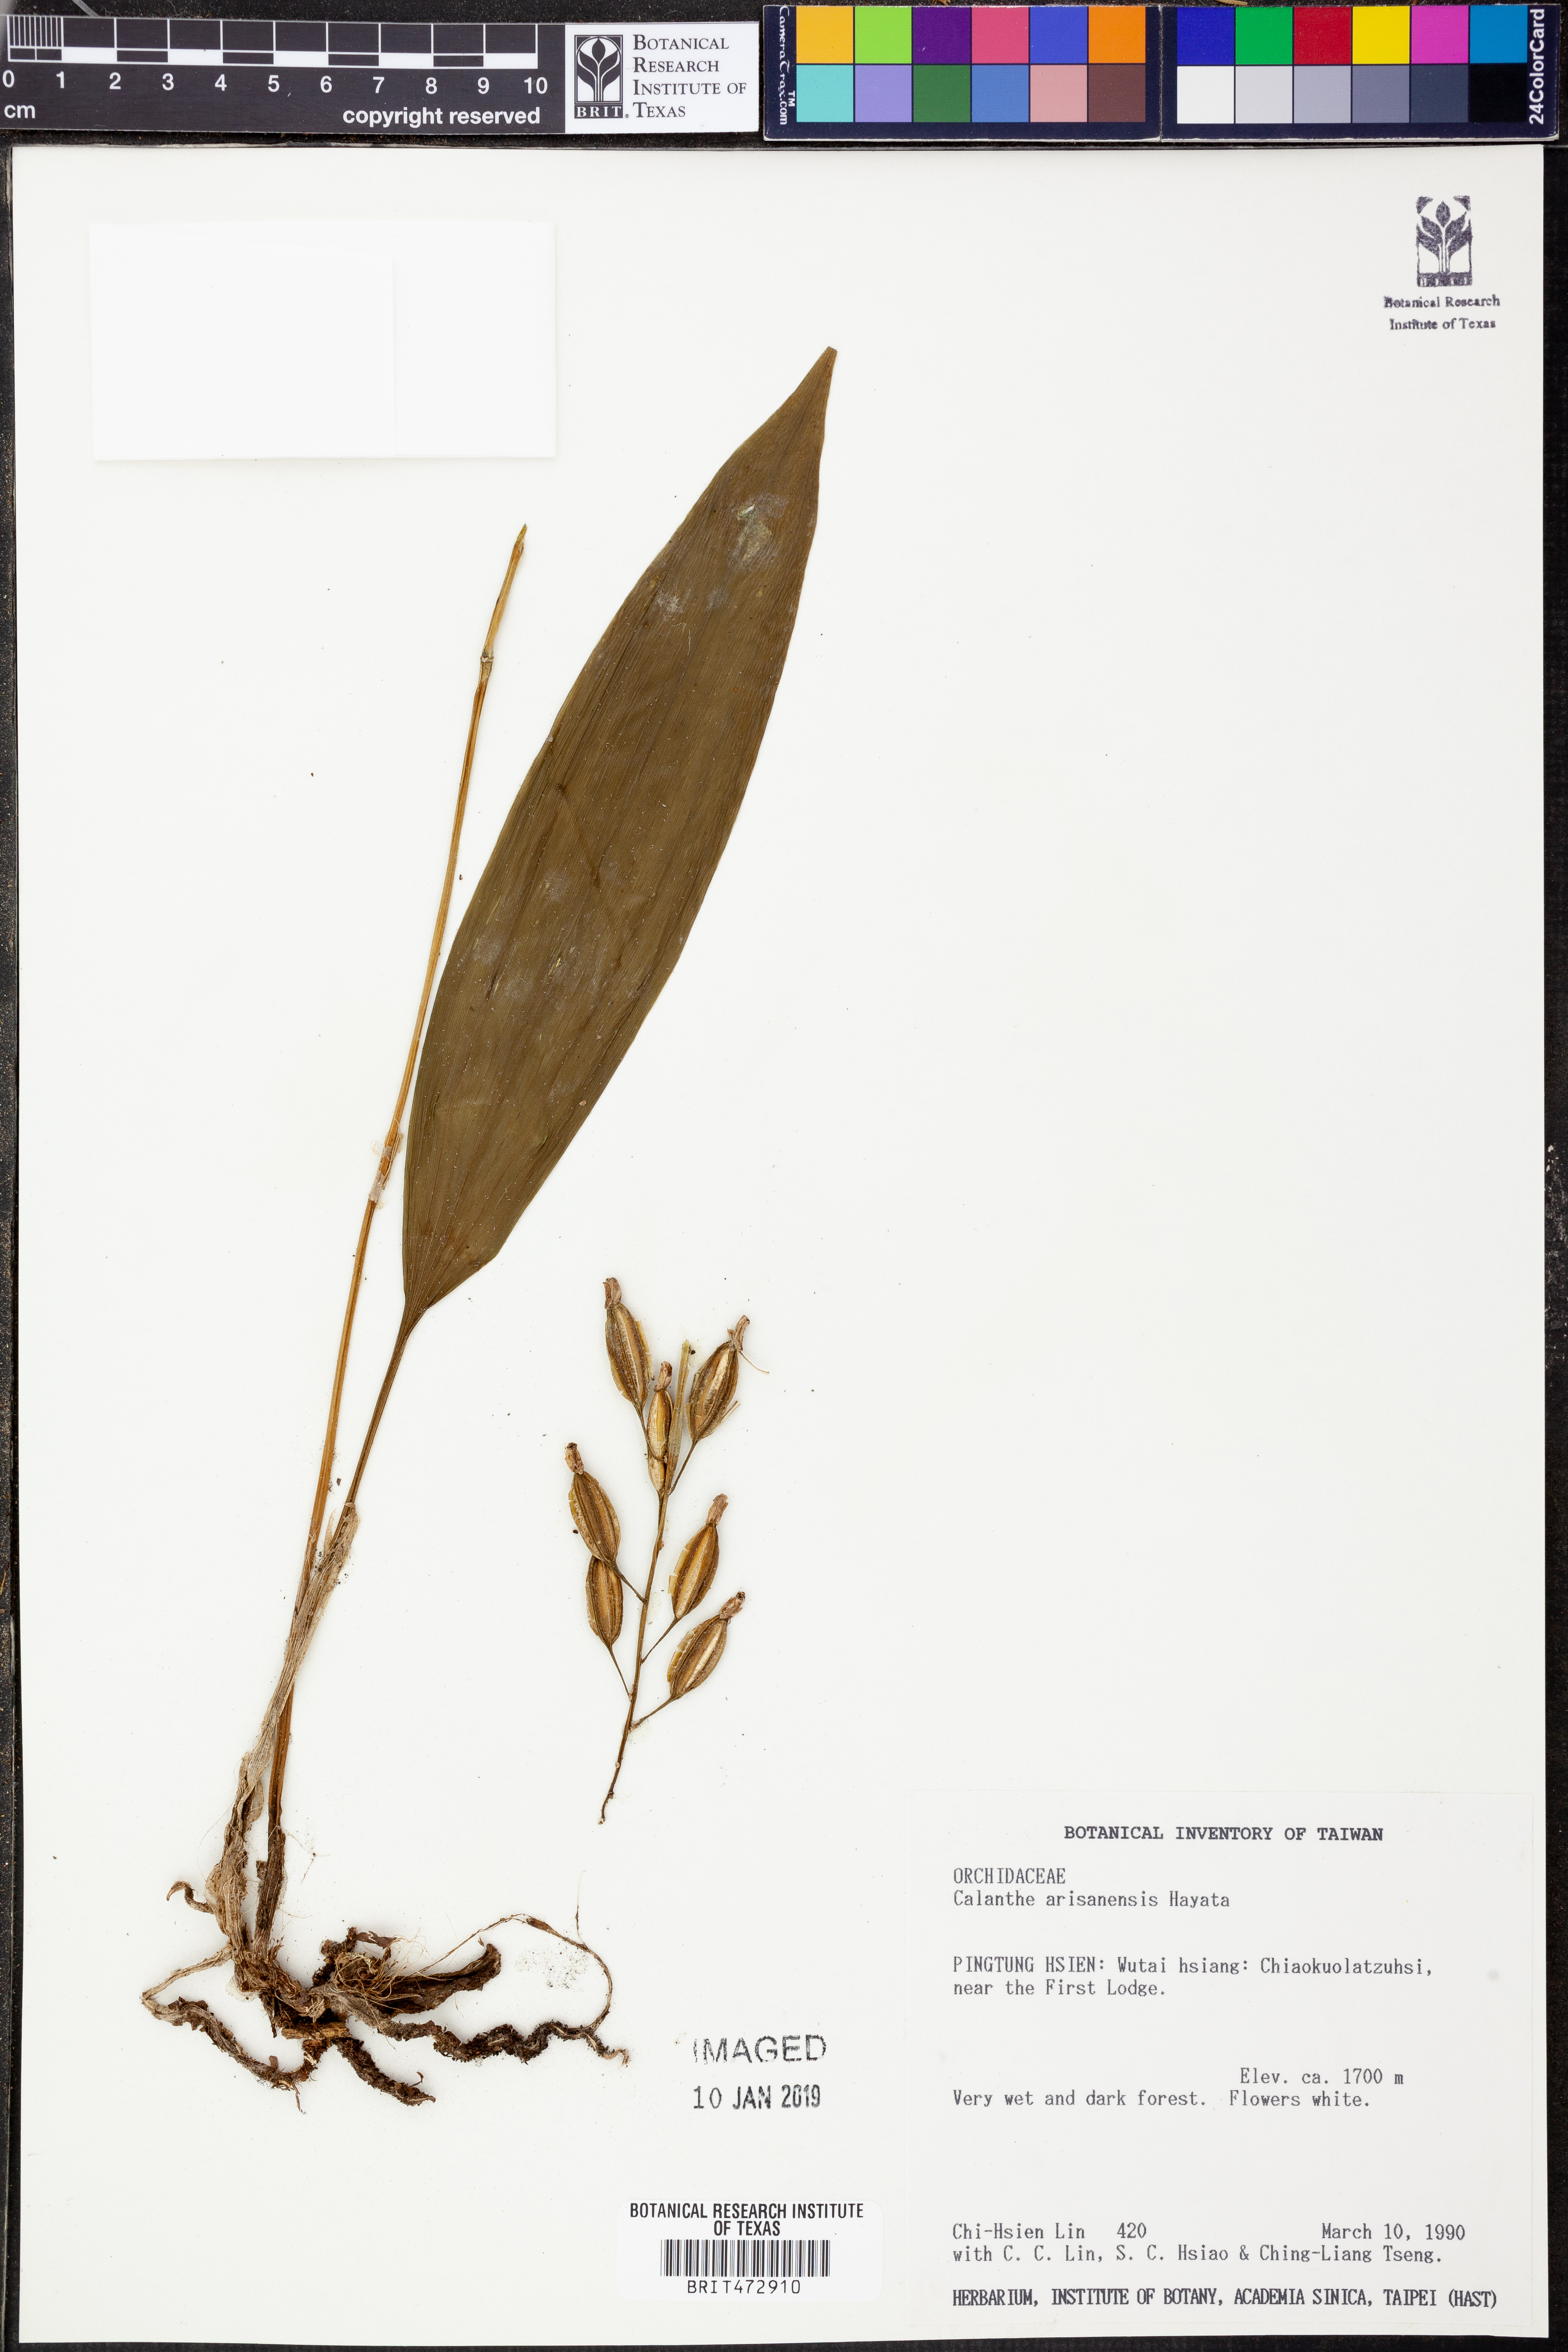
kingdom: Plantae
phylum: Tracheophyta
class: Liliopsida
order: Asparagales
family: Orchidaceae
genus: Calanthe
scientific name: Calanthe arisanensis
